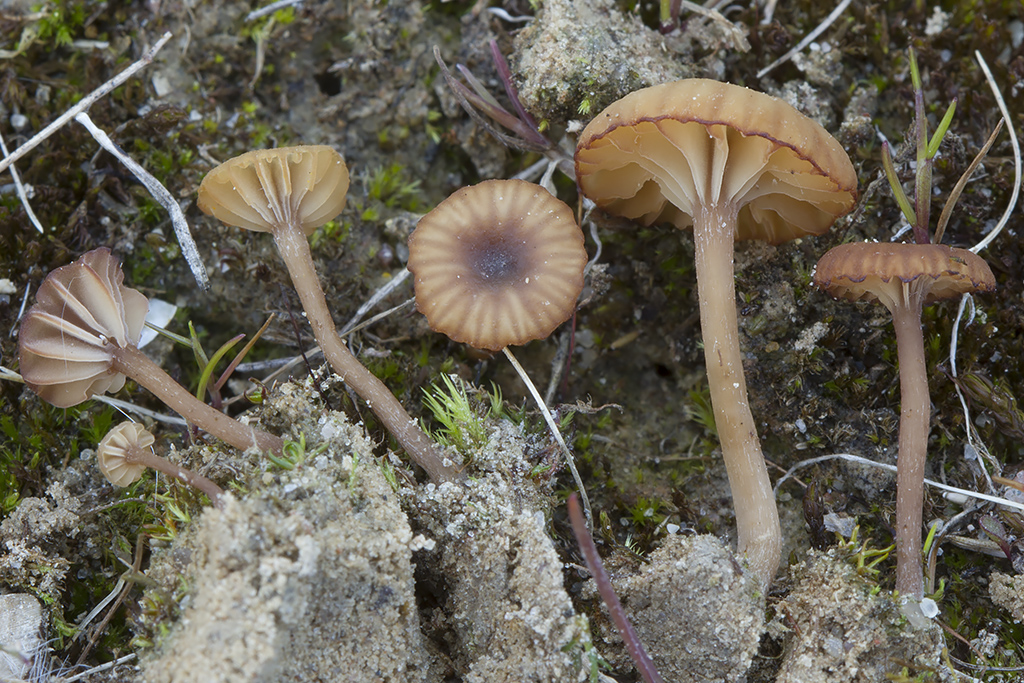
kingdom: Fungi
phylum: Basidiomycota
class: Agaricomycetes
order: Agaricales
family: Tricholomataceae
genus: Omphalina
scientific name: Omphalina pyxidata
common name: Cinnamon navel
